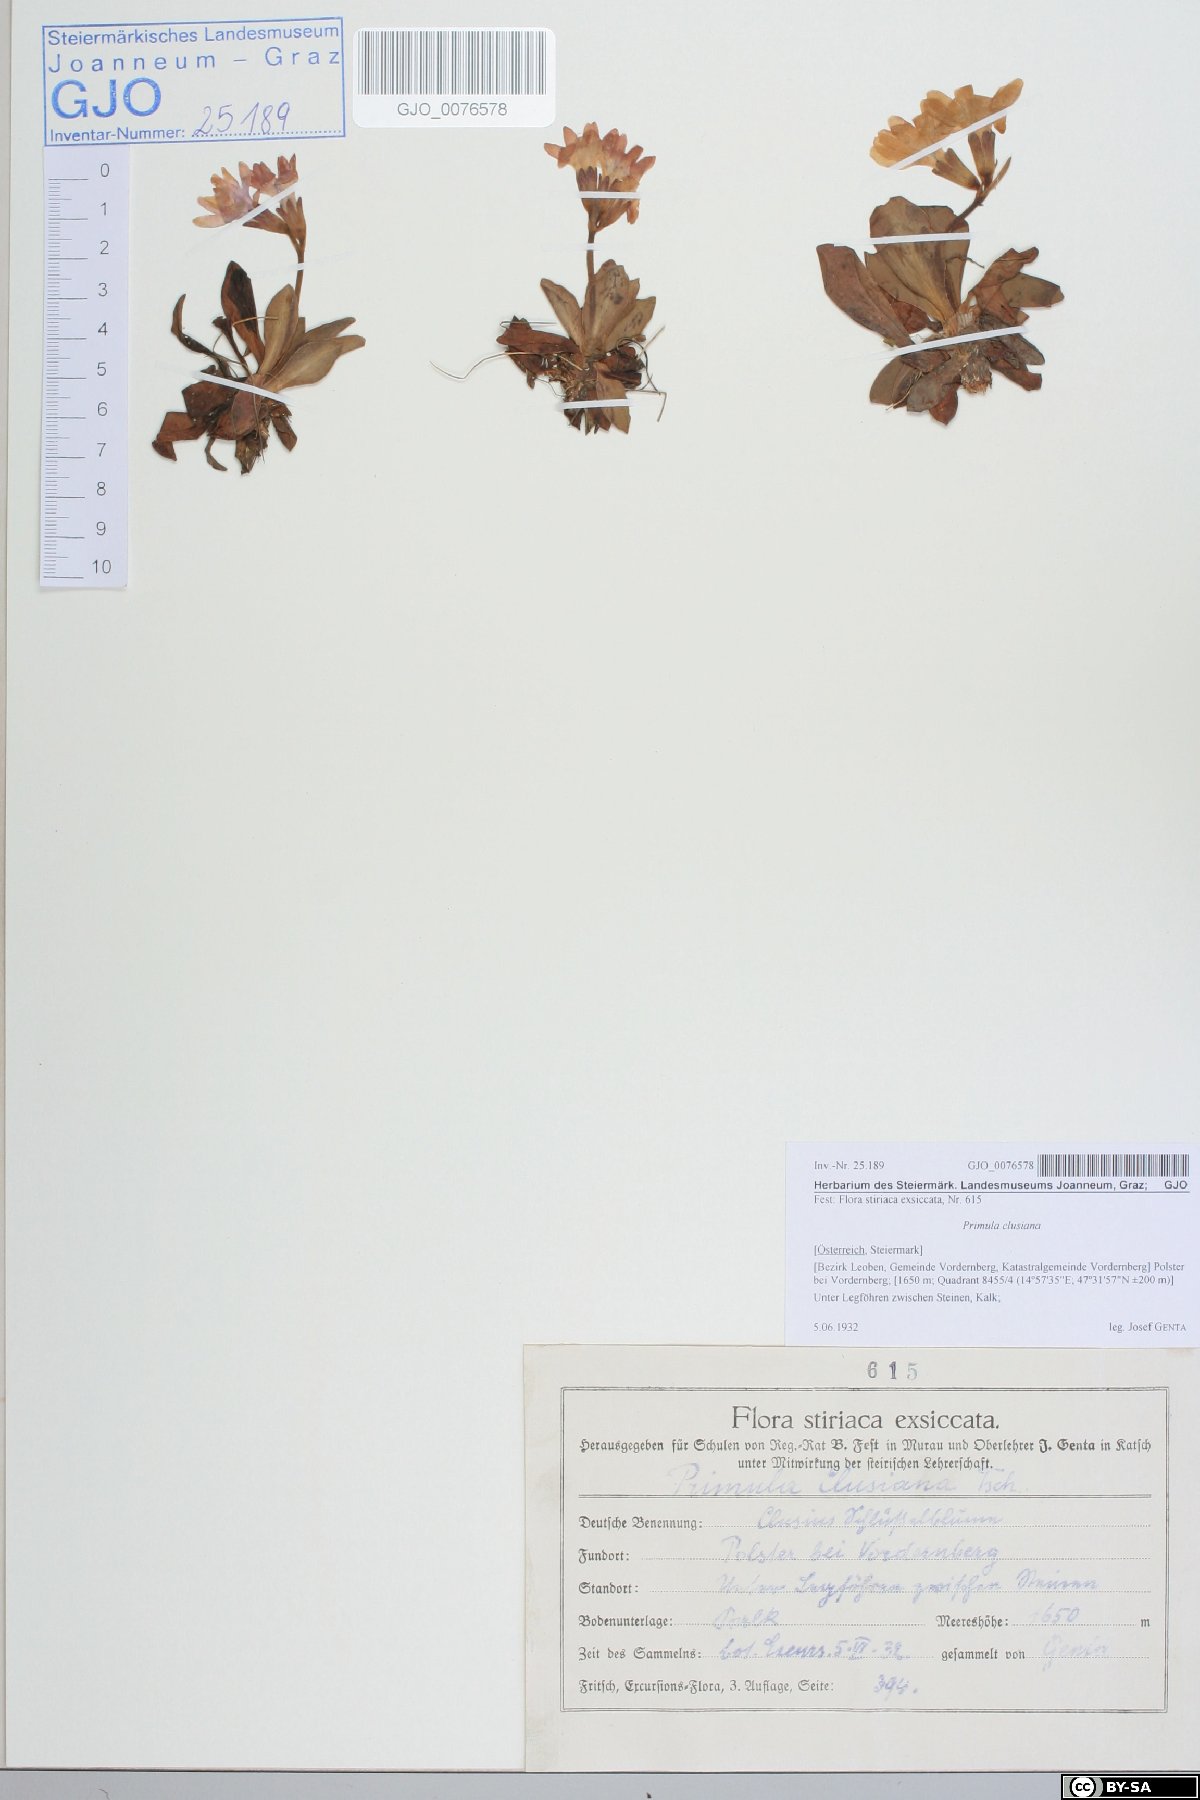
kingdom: Plantae
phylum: Tracheophyta
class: Magnoliopsida
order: Ericales
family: Primulaceae
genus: Primula
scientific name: Primula clusiana
